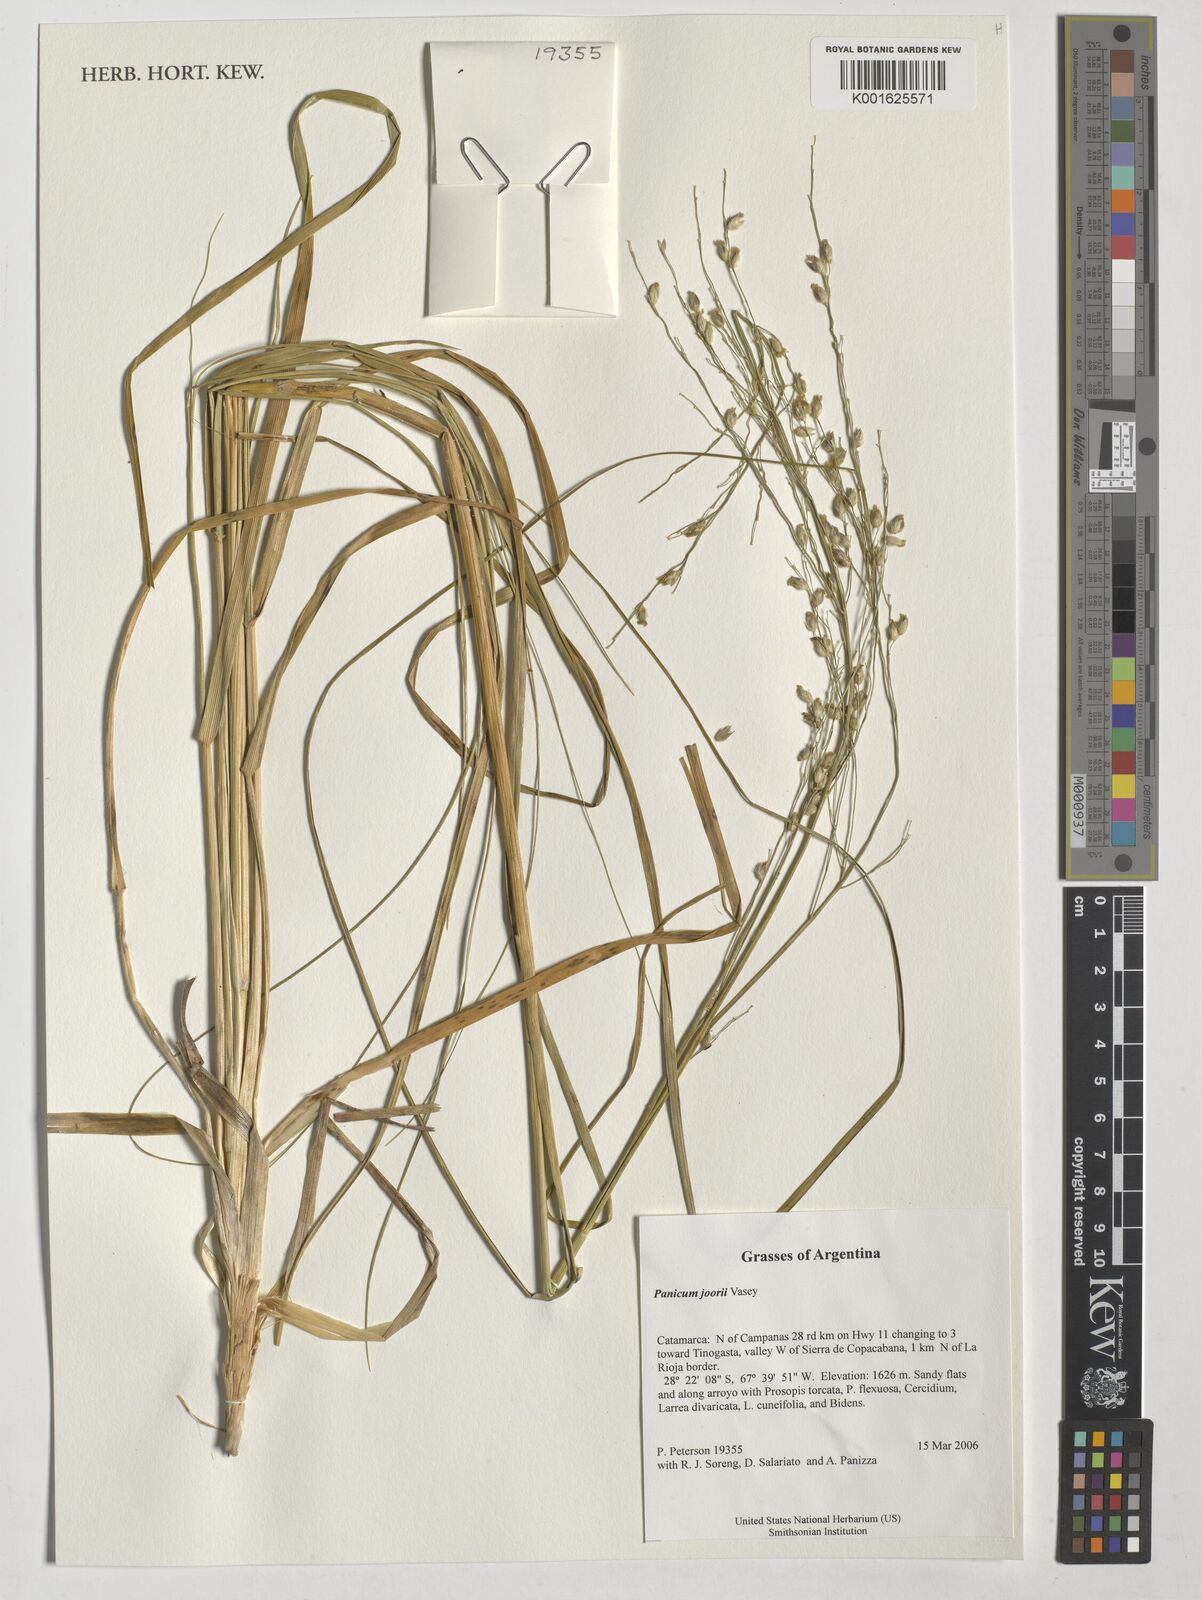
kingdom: Plantae
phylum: Tracheophyta
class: Liliopsida
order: Poales
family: Poaceae
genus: Dichanthelium
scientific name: Dichanthelium commutatum
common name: Variable witchgrass
